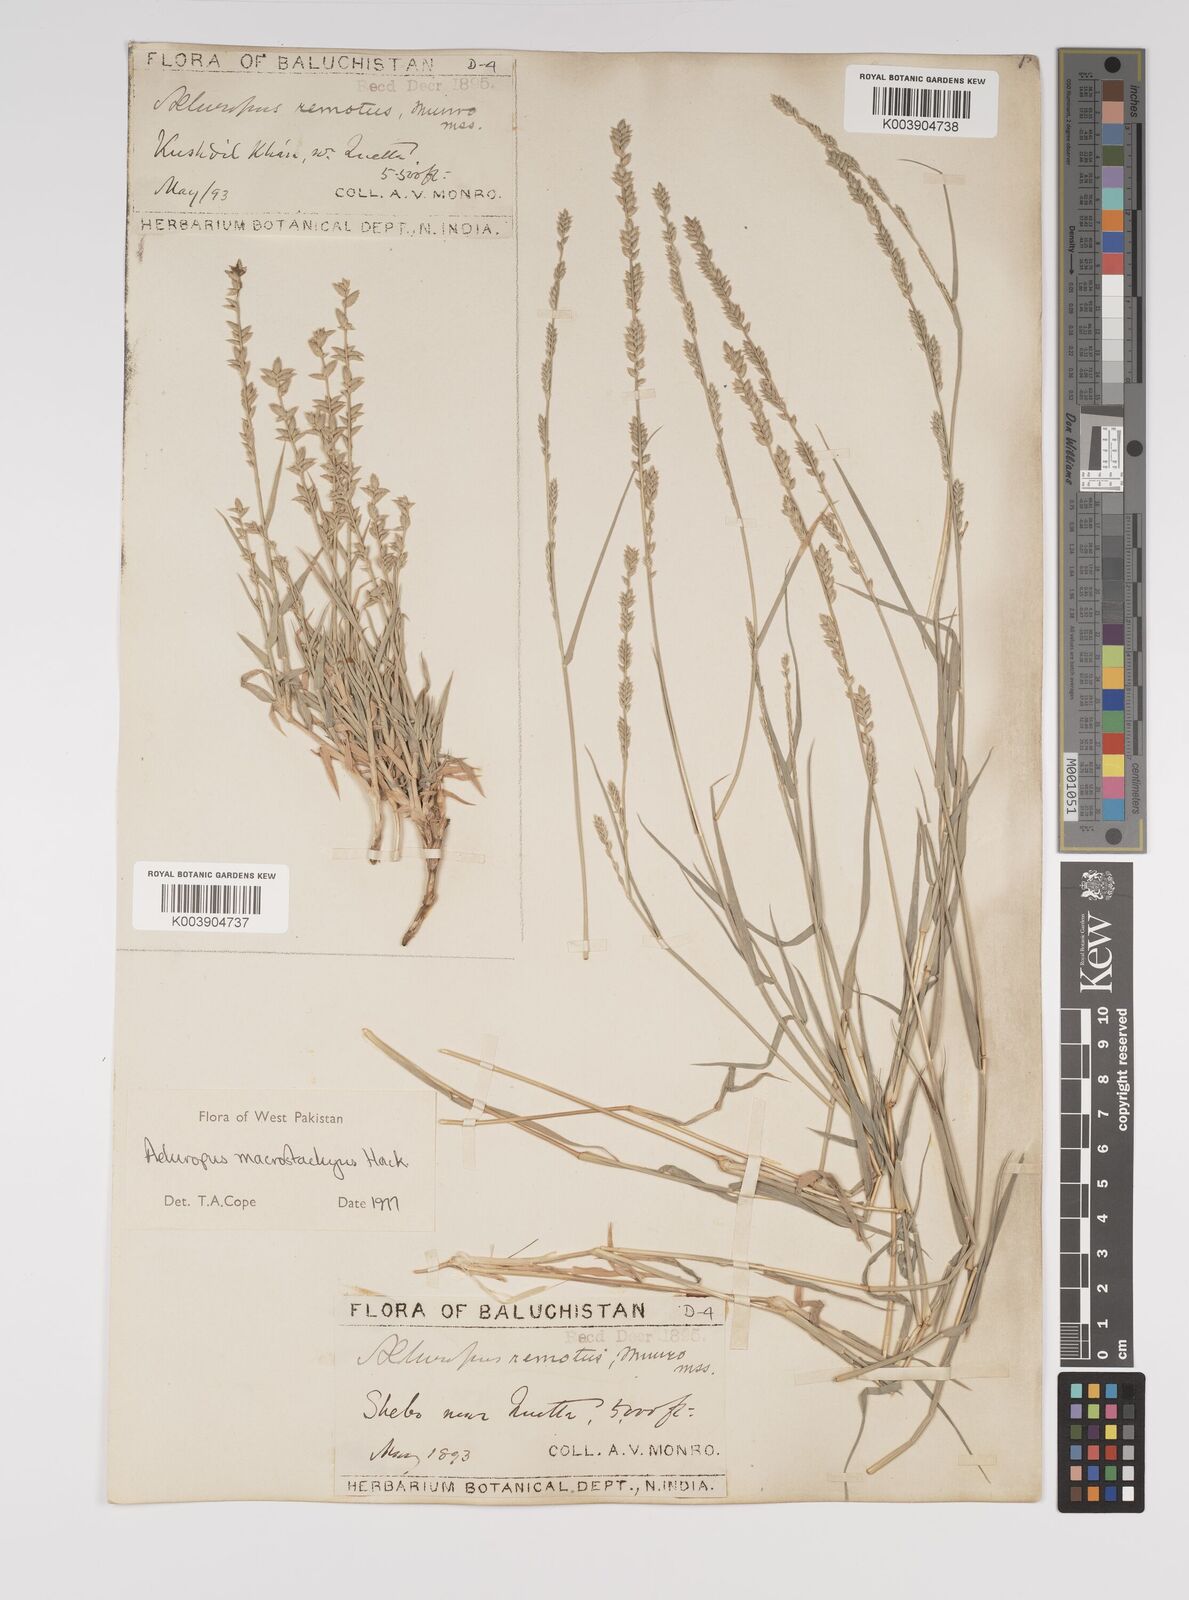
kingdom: Plantae
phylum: Tracheophyta
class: Liliopsida
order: Poales
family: Poaceae
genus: Aeluropus
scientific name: Aeluropus macrostachyus
